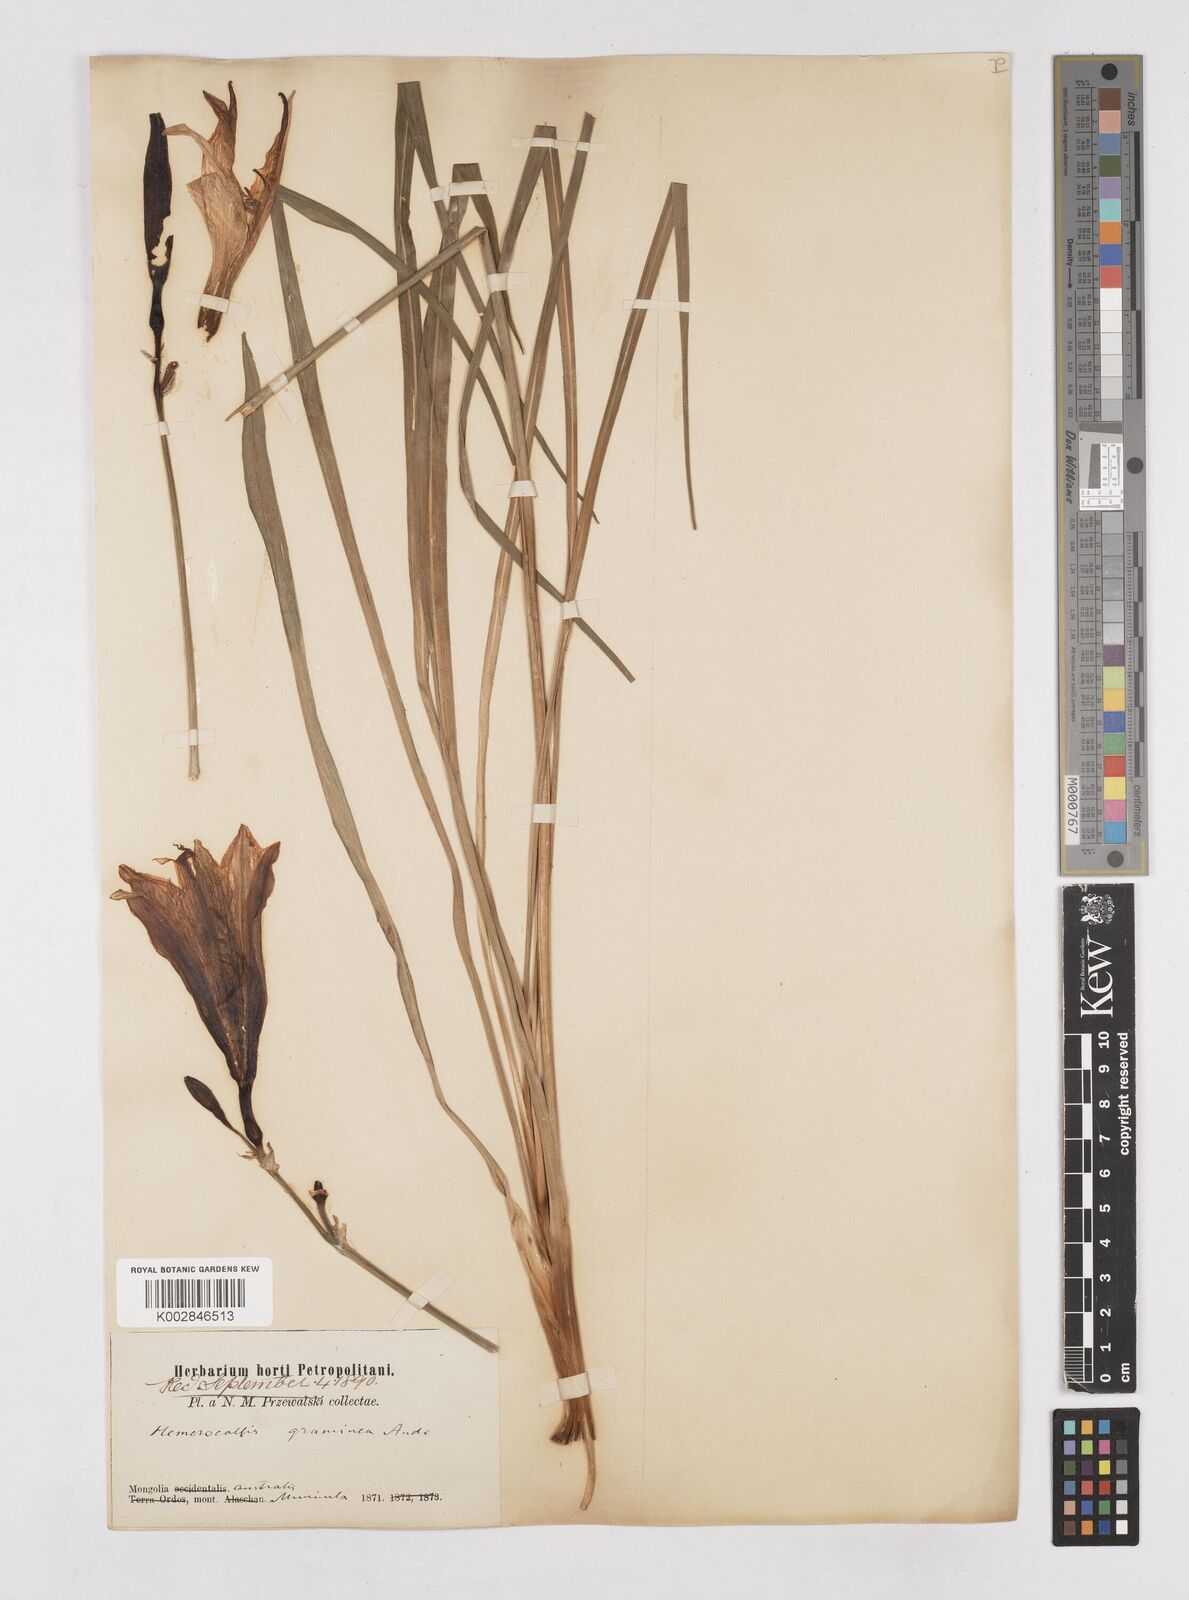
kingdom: Plantae
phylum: Tracheophyta
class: Liliopsida
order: Asparagales
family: Asphodelaceae
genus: Hemerocallis
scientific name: Hemerocallis minor
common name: Small daylily
